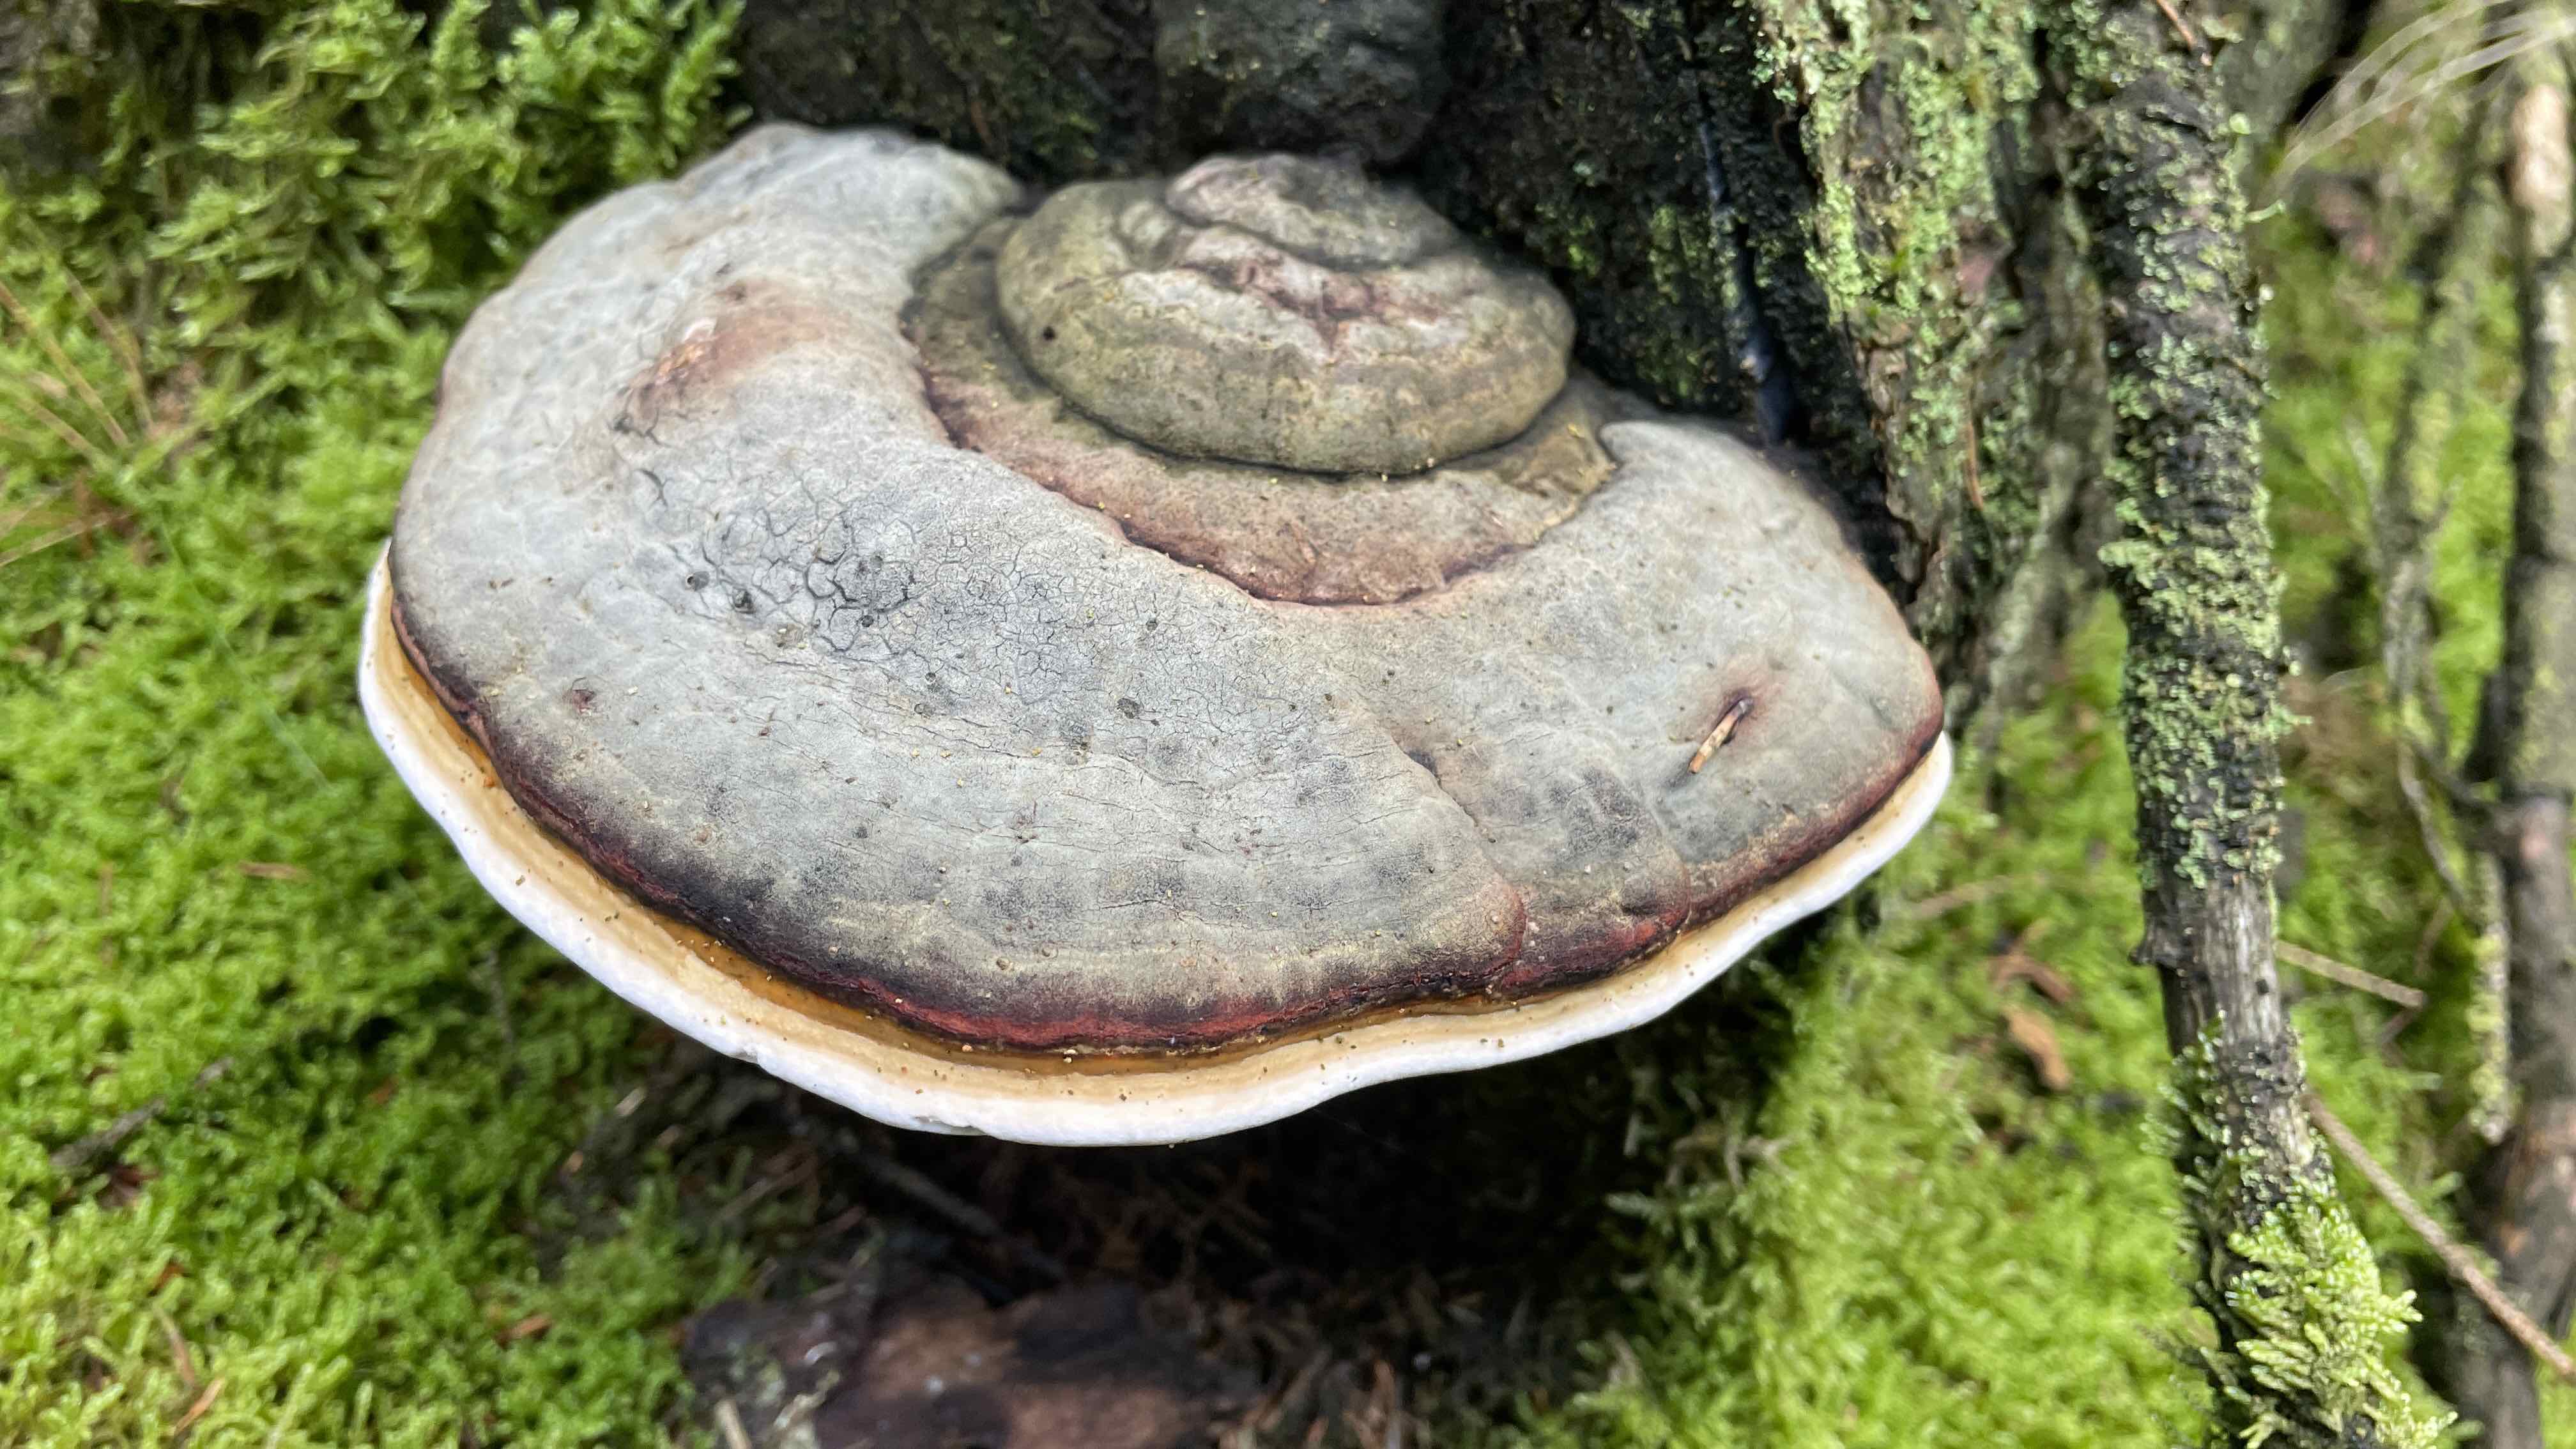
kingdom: Fungi
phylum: Basidiomycota
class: Agaricomycetes
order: Polyporales
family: Fomitopsidaceae
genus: Fomitopsis
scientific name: Fomitopsis pinicola
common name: randbæltet hovporesvamp
